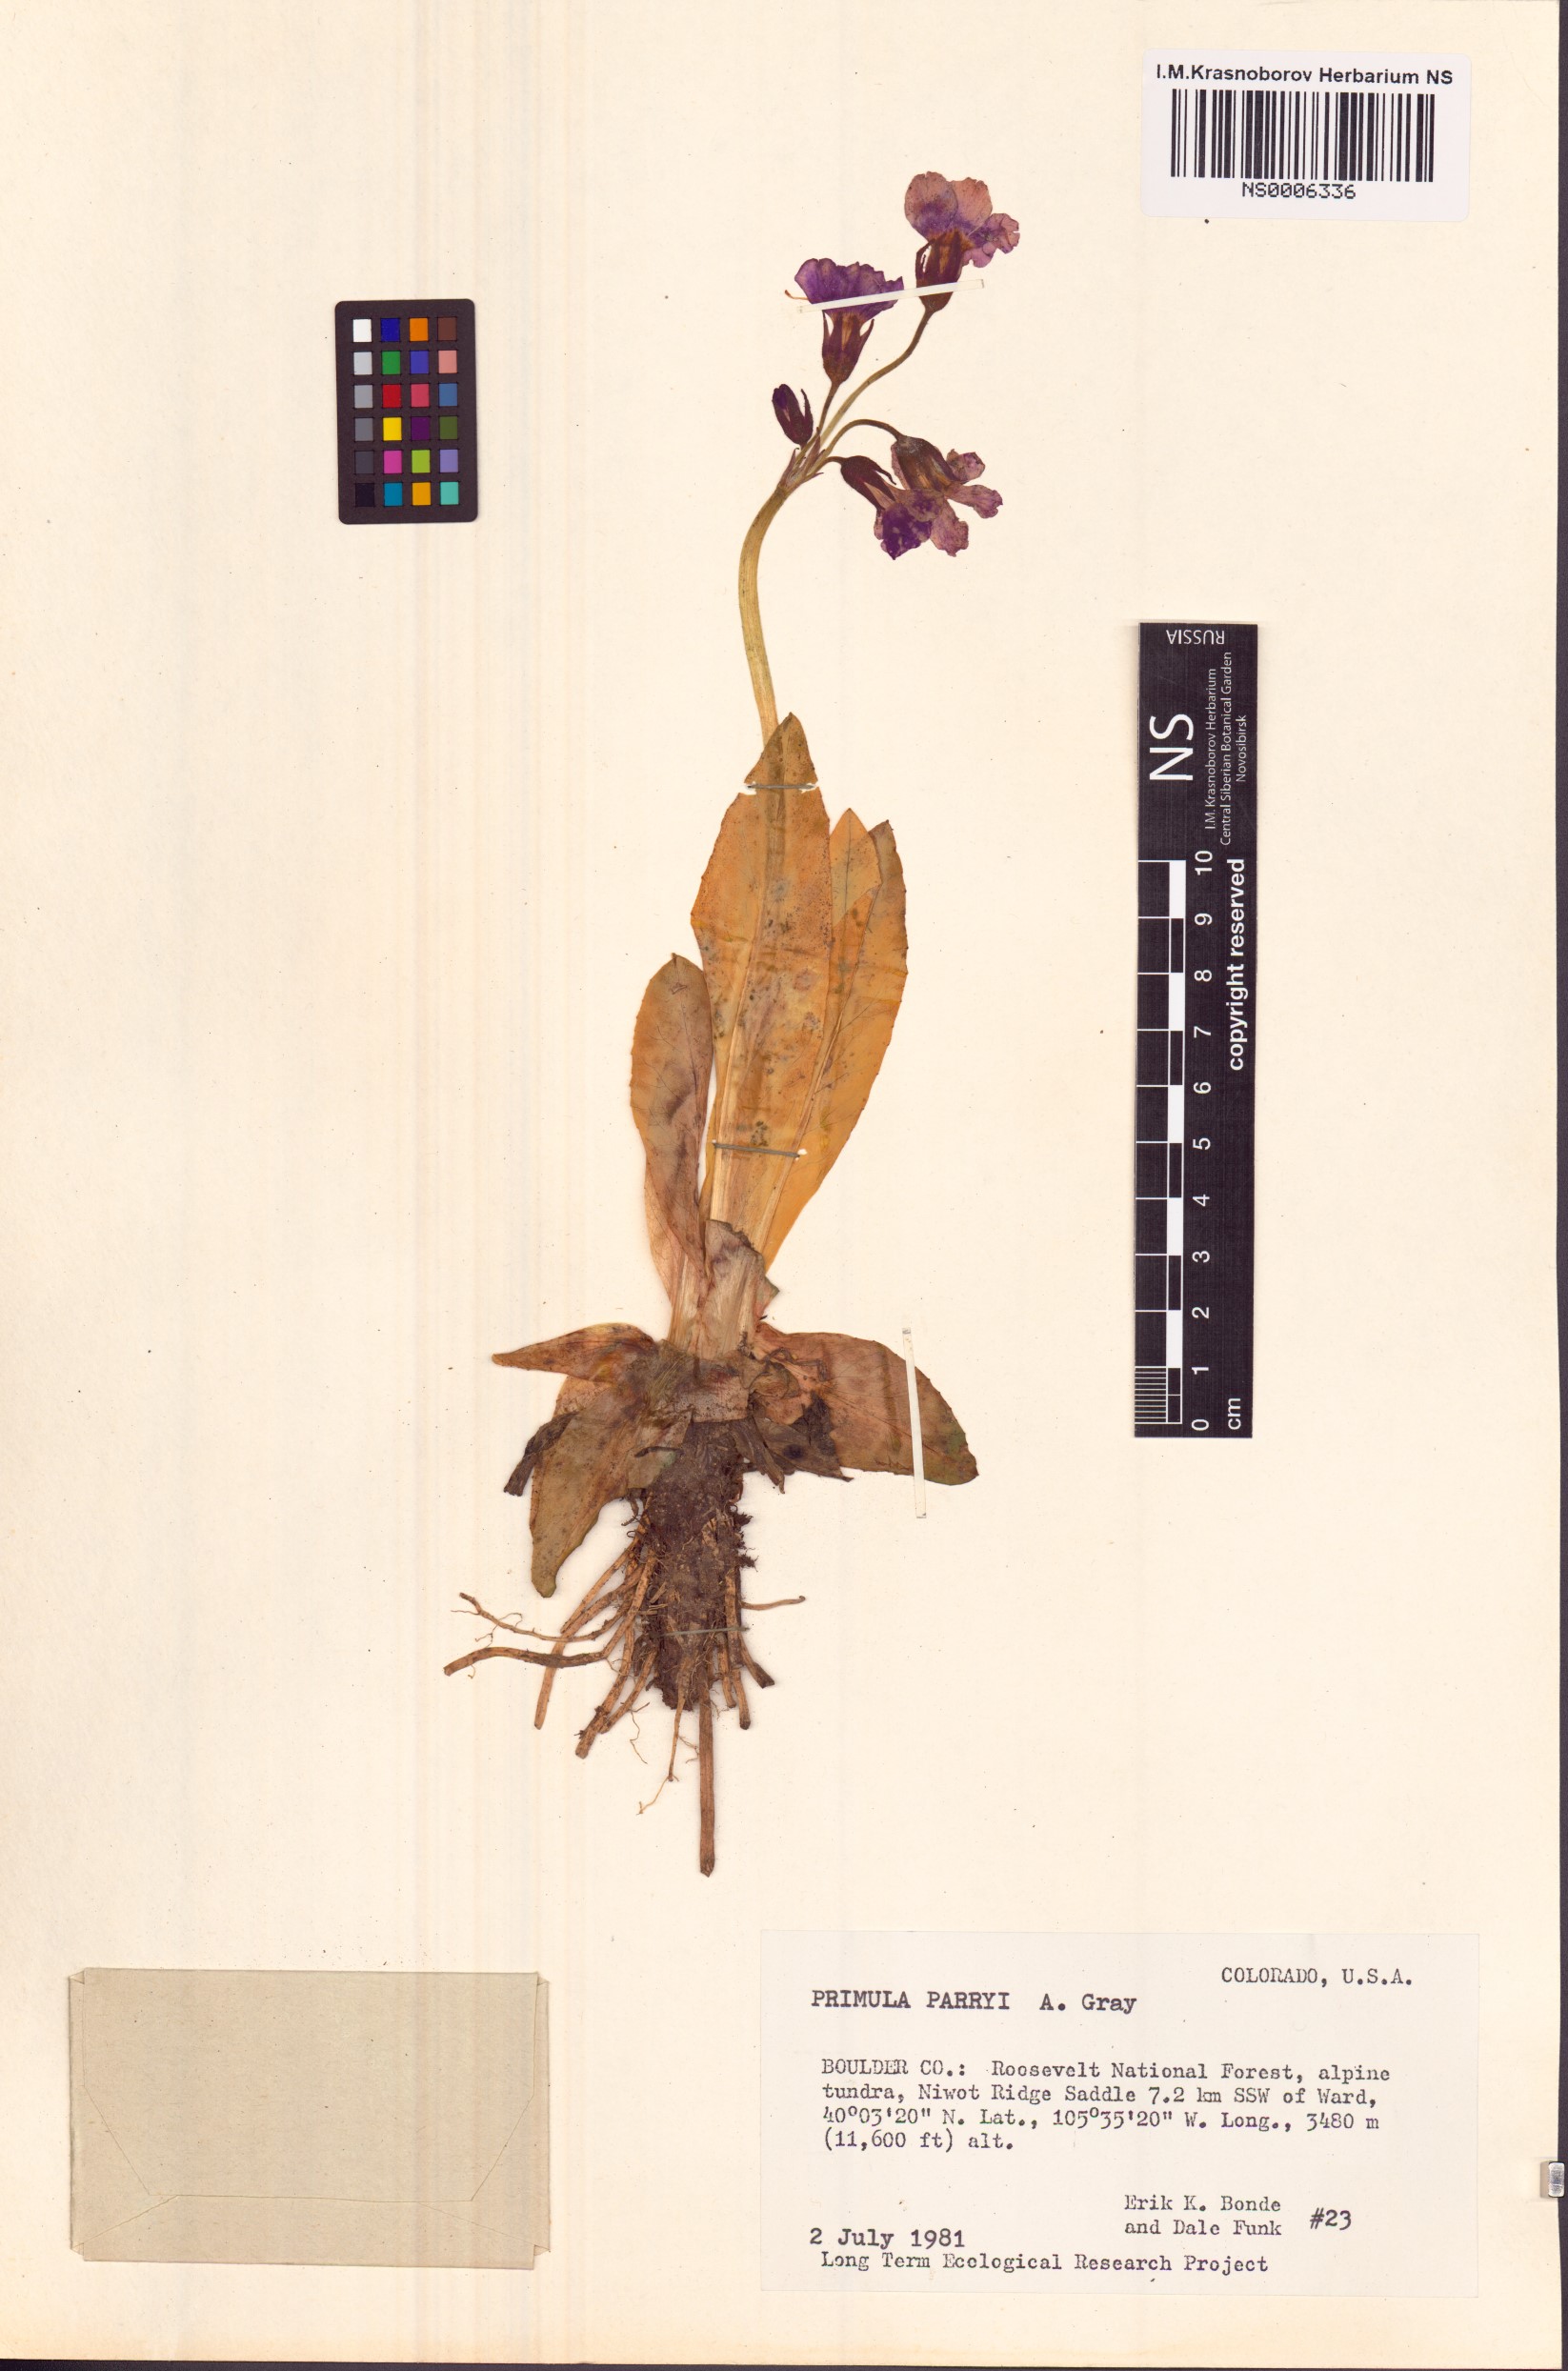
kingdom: Plantae
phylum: Tracheophyta
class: Magnoliopsida
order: Ericales
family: Primulaceae
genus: Primula
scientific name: Primula parryi
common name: Parry's primrose
